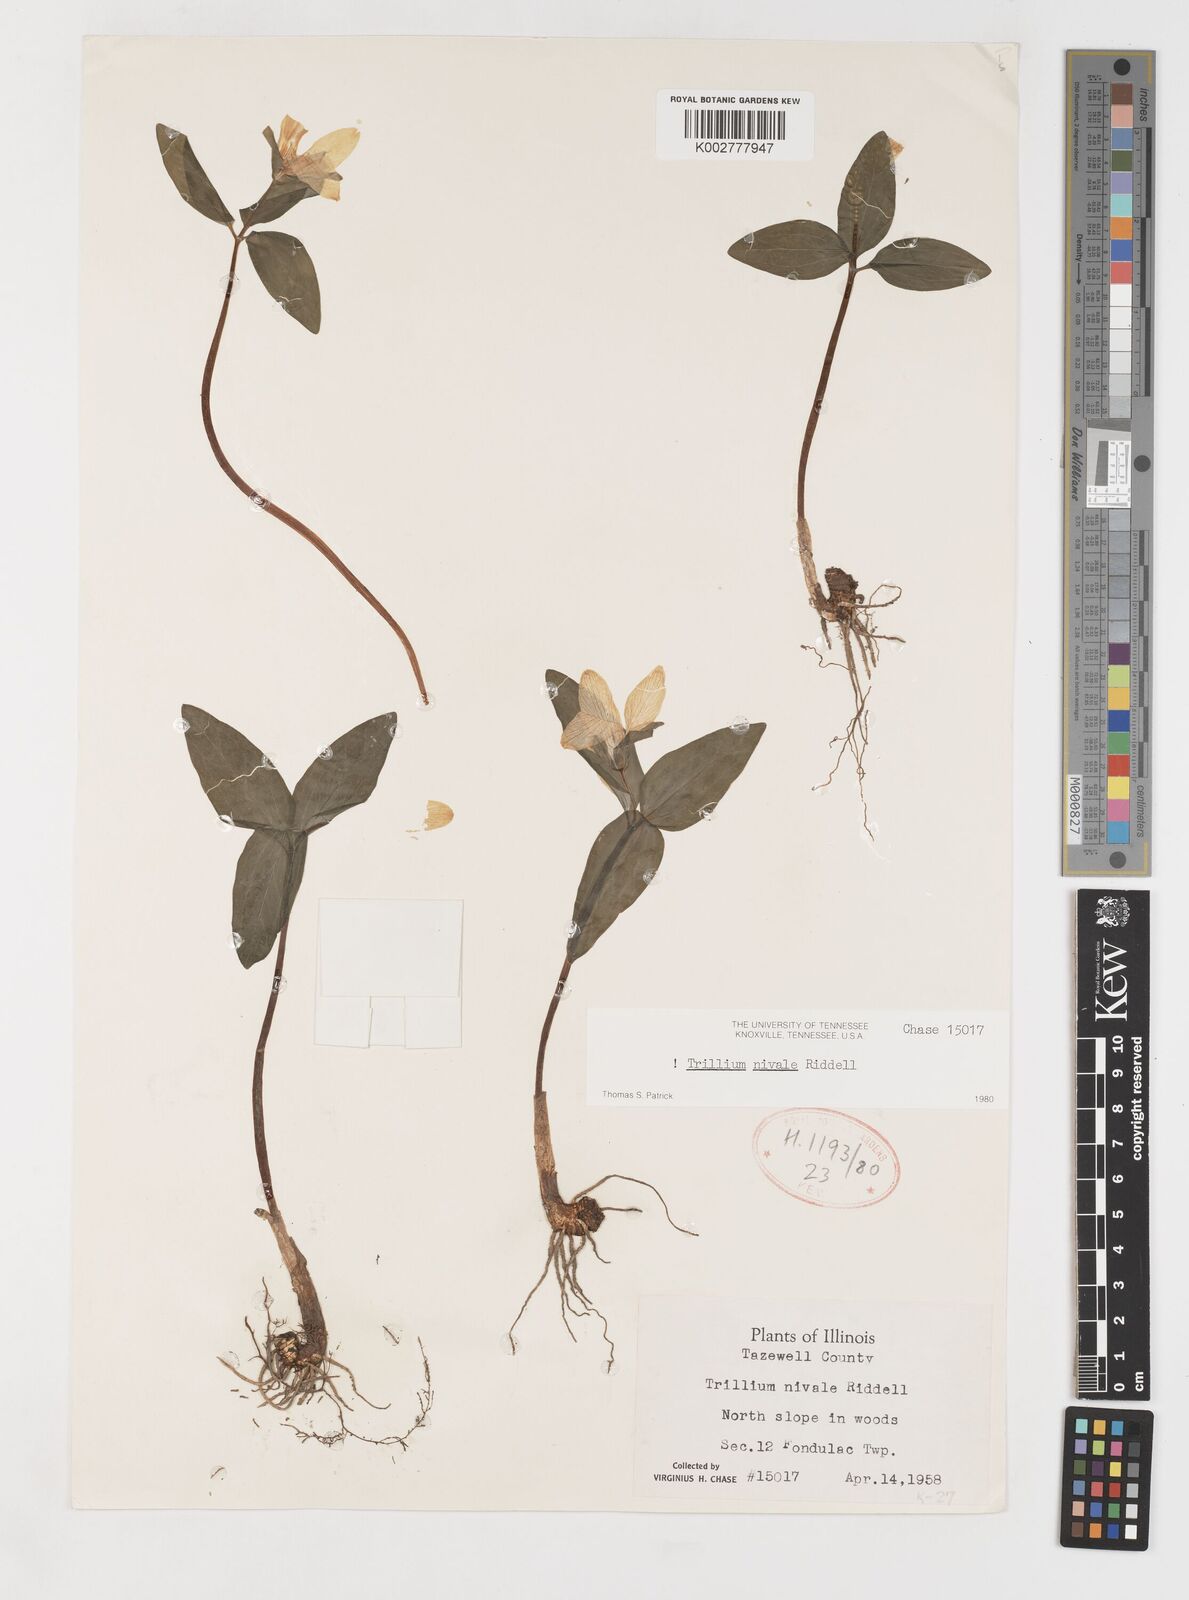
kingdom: Plantae
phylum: Tracheophyta
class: Liliopsida
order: Liliales
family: Melanthiaceae
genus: Trillium
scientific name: Trillium nivale
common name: Dwarf white trillium
